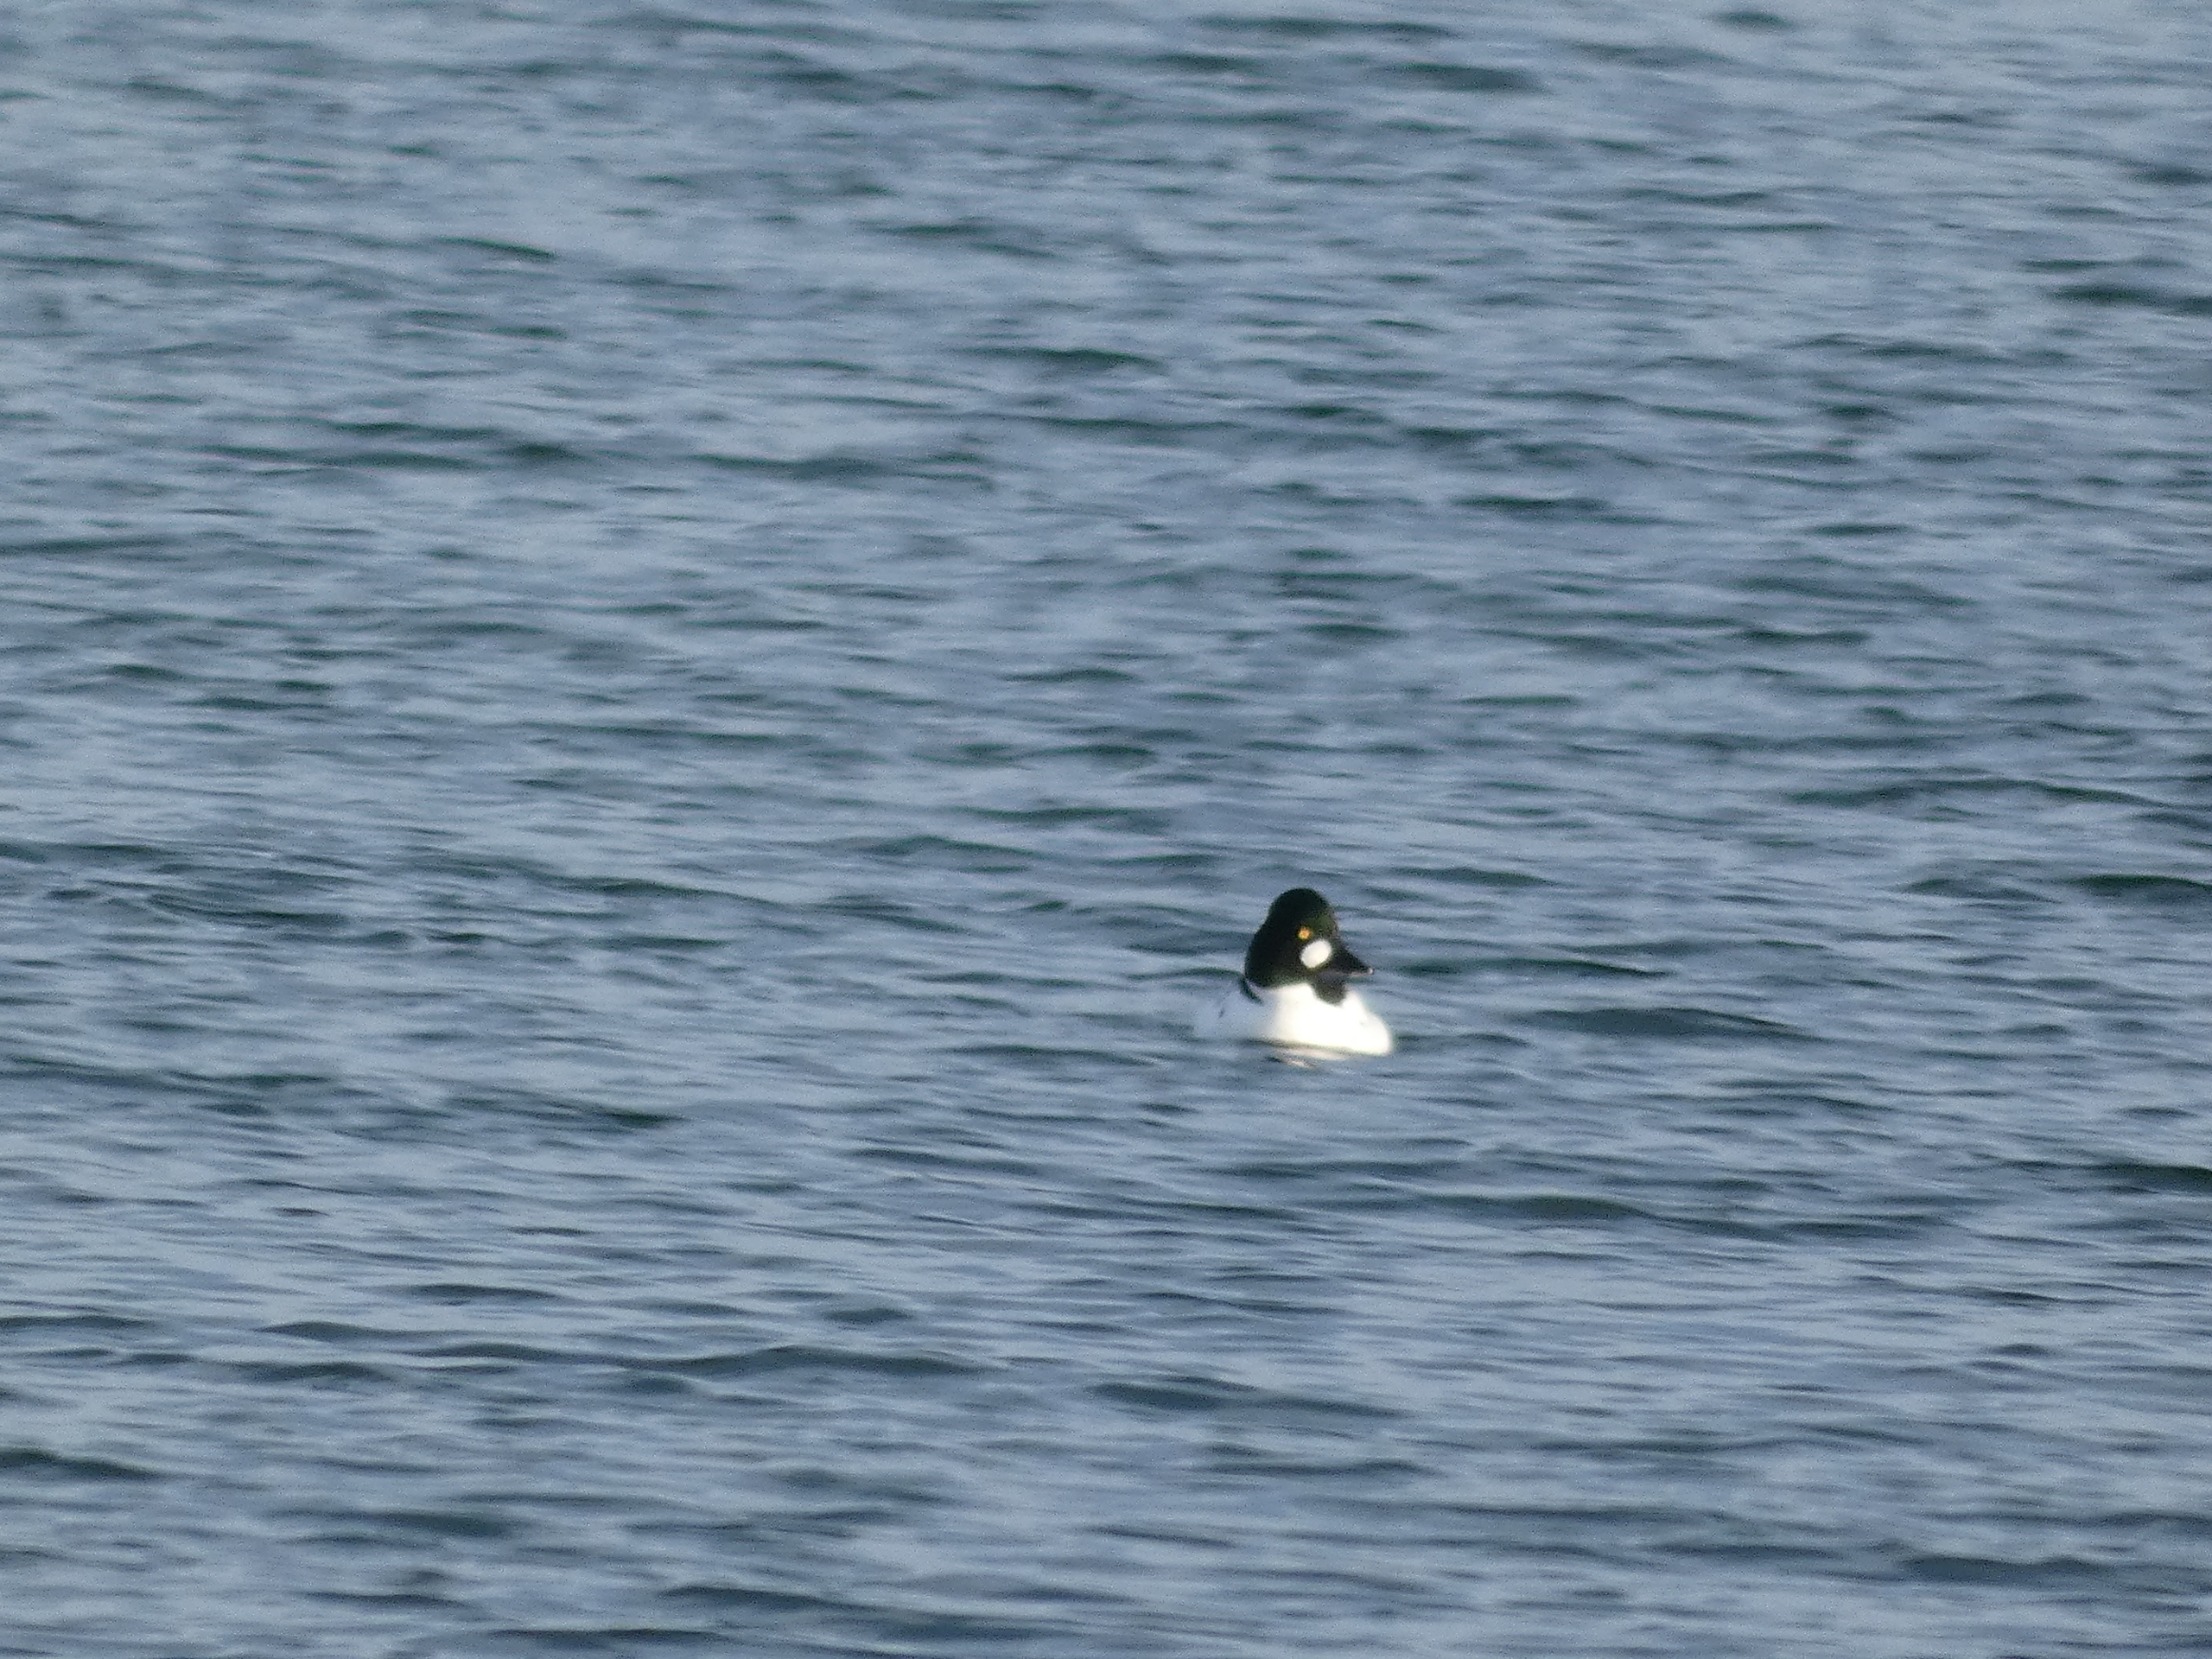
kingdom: Animalia
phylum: Chordata
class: Aves
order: Anseriformes
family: Anatidae
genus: Bucephala
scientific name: Bucephala clangula
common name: Hvinand
